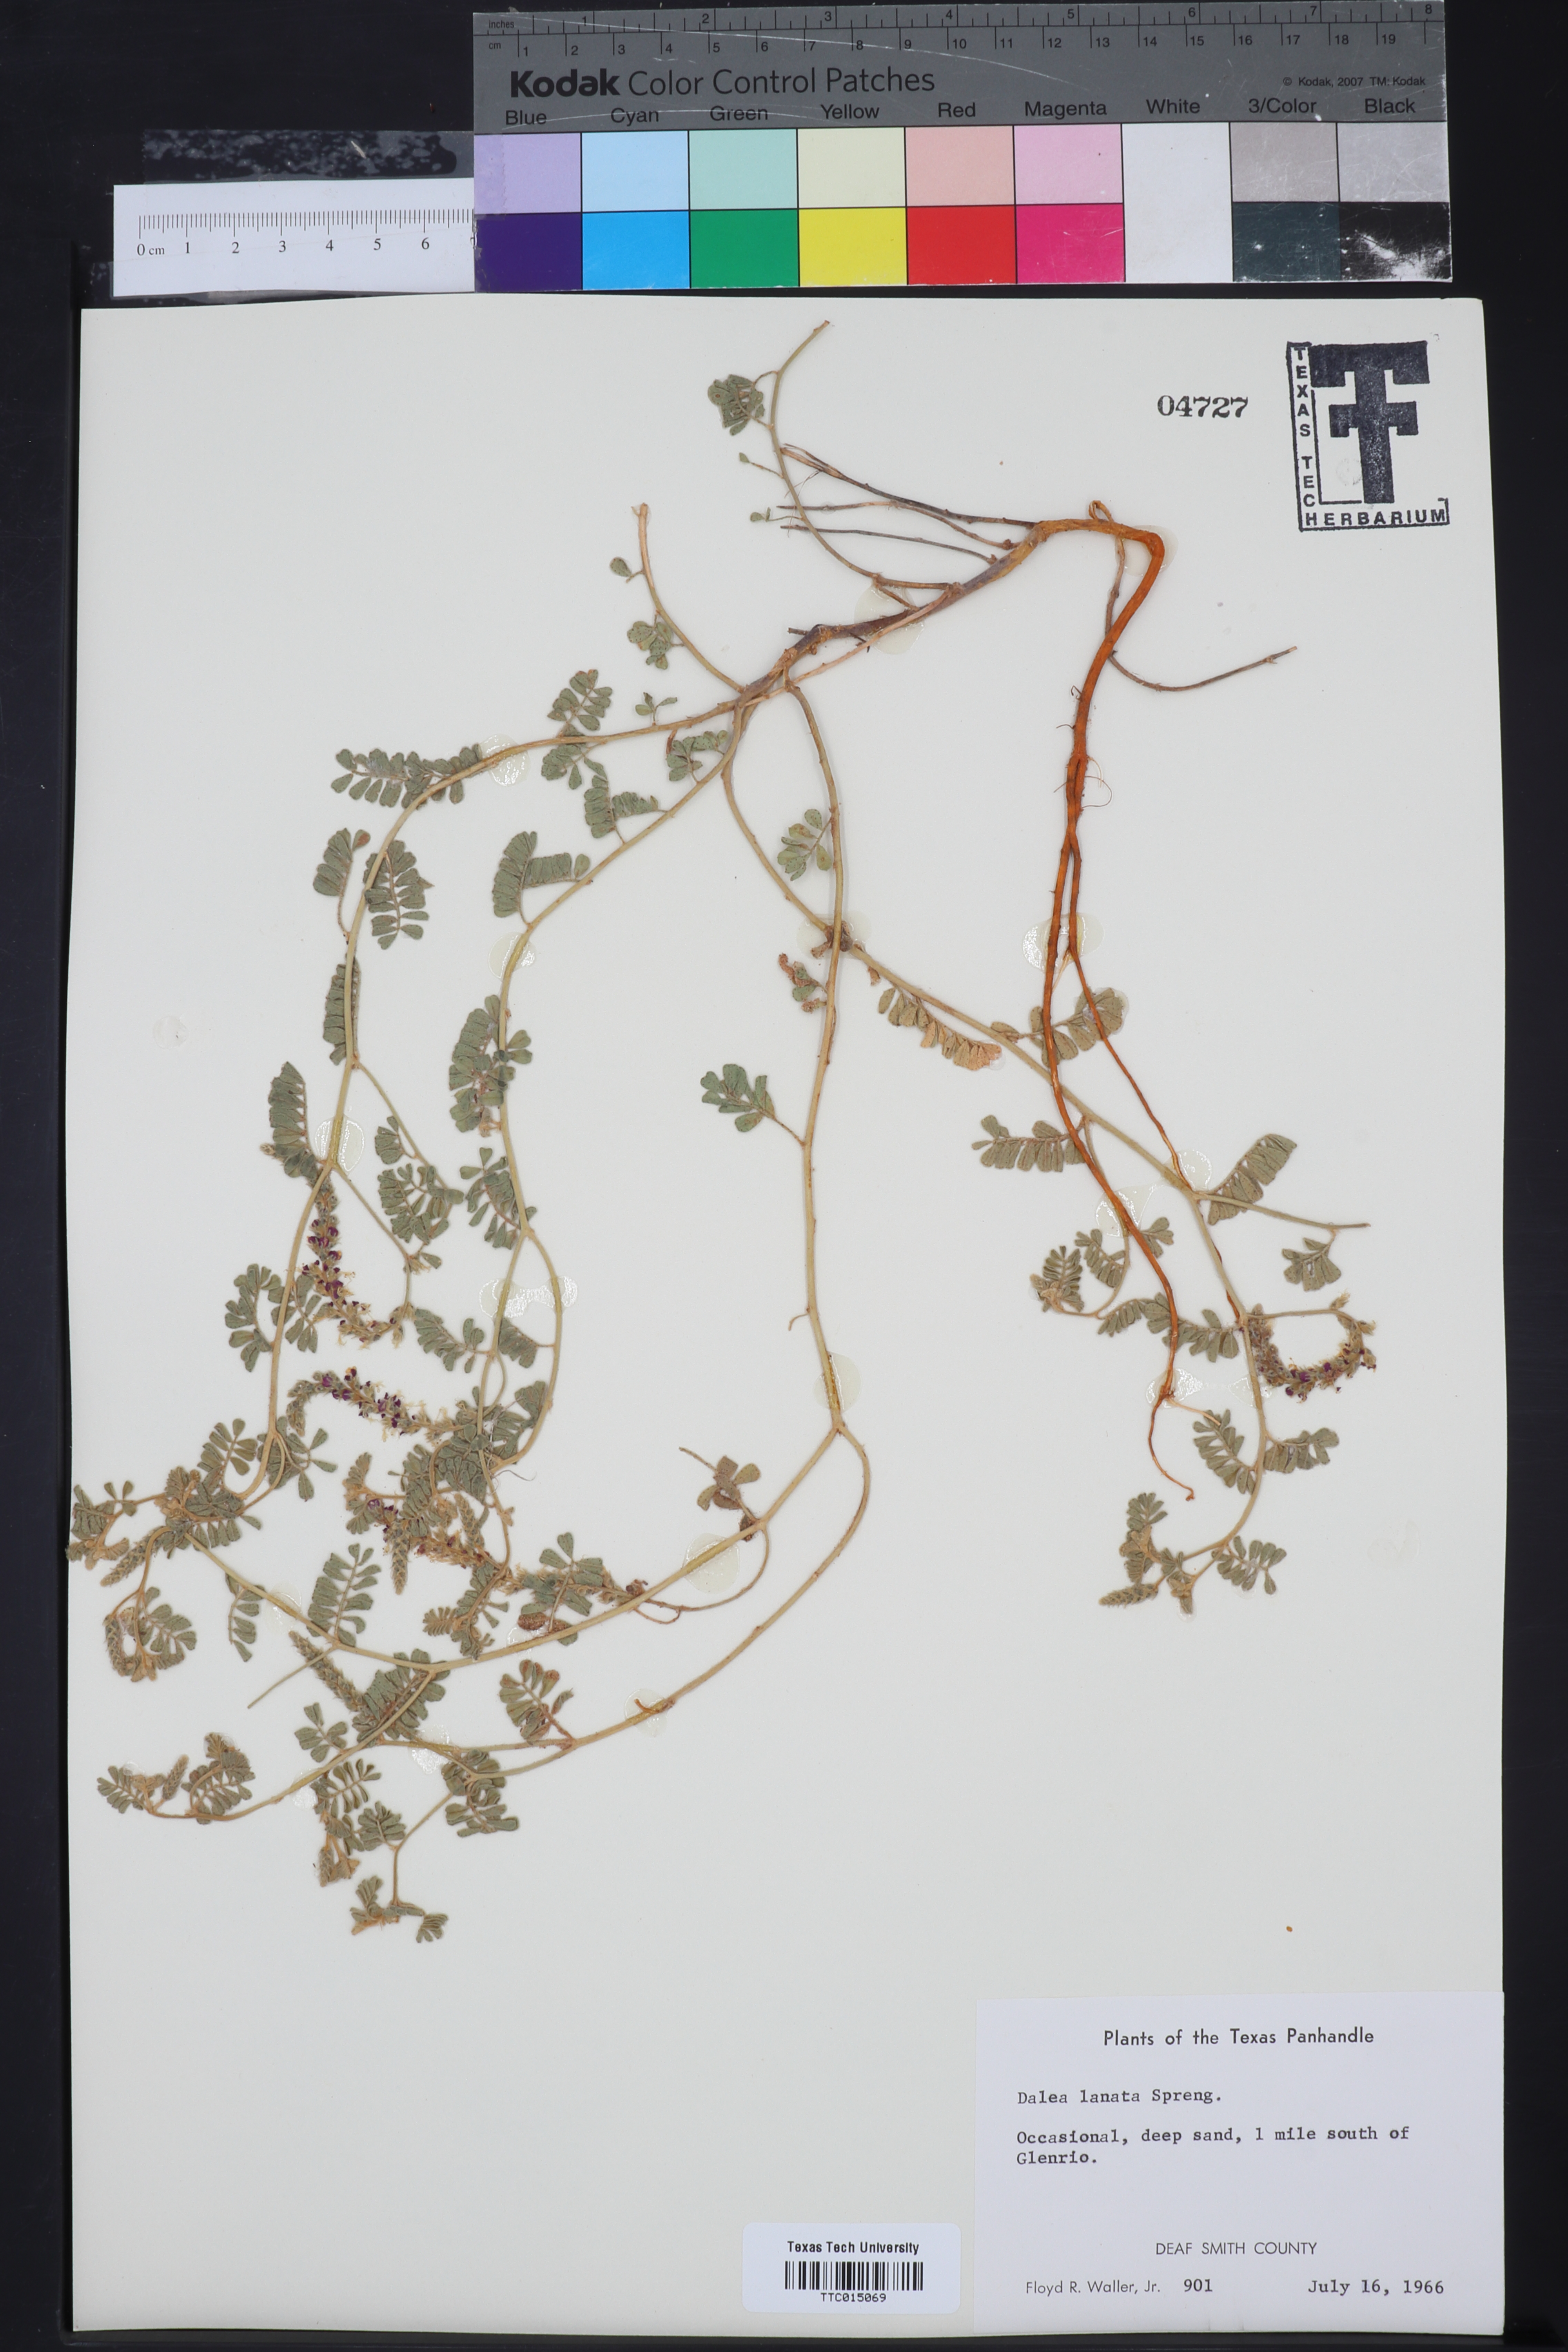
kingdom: Plantae
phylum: Tracheophyta
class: Magnoliopsida
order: Fabales
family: Fabaceae
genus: Dalea
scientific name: Dalea lanata
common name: Woolly dalea
